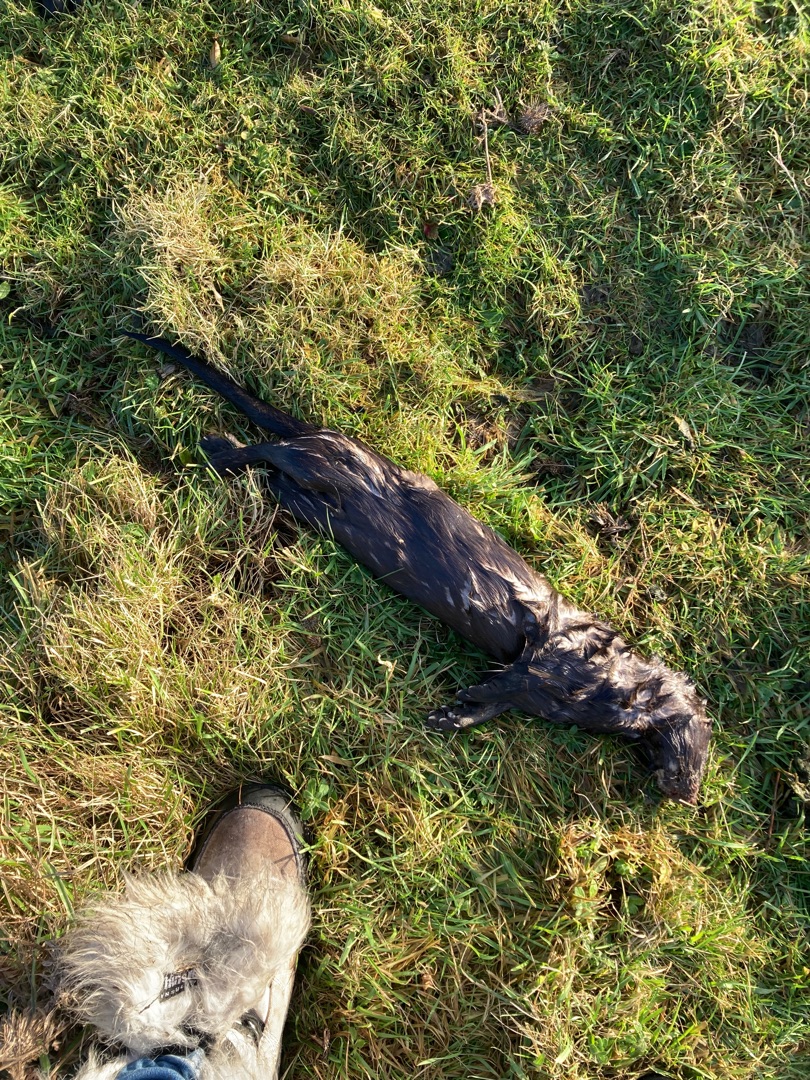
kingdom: Animalia
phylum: Chordata
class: Mammalia
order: Carnivora
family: Mustelidae
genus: Lutra
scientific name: Lutra lutra
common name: Odder
